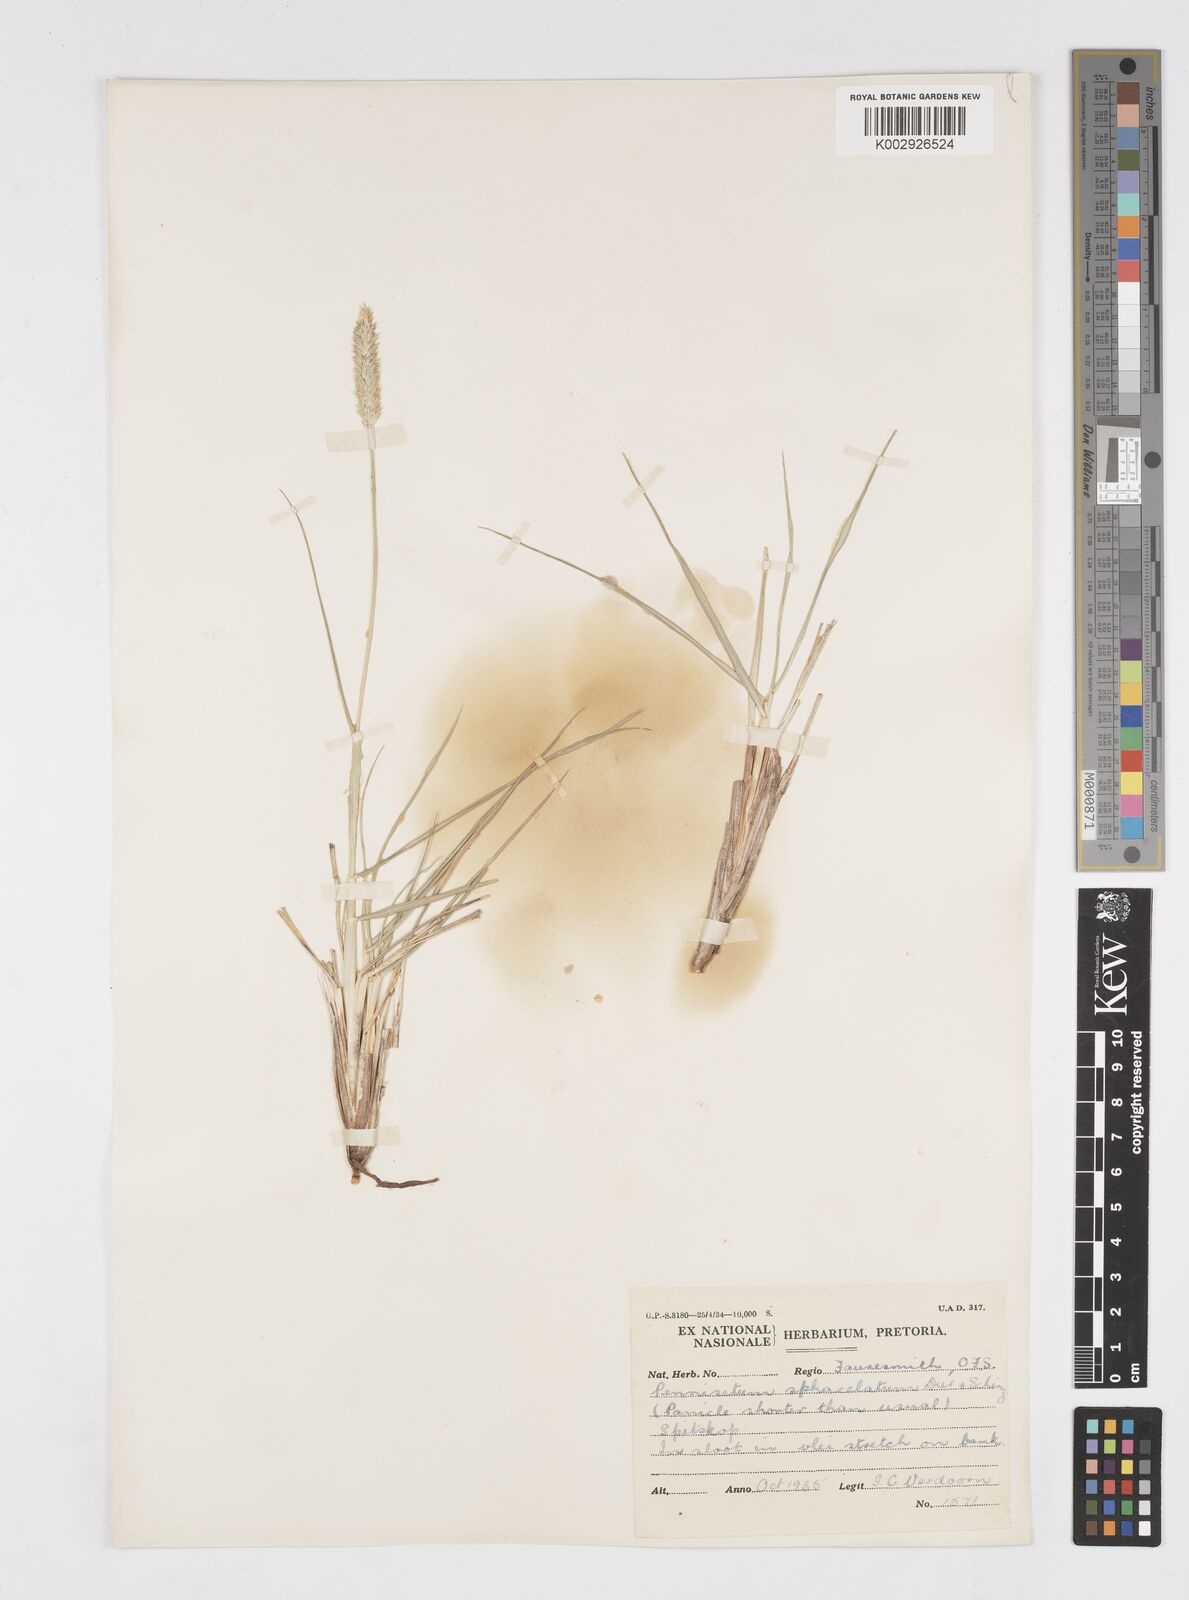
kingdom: Plantae
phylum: Tracheophyta
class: Liliopsida
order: Poales
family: Poaceae
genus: Cenchrus
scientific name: Cenchrus sphacelatus
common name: Bulgras
